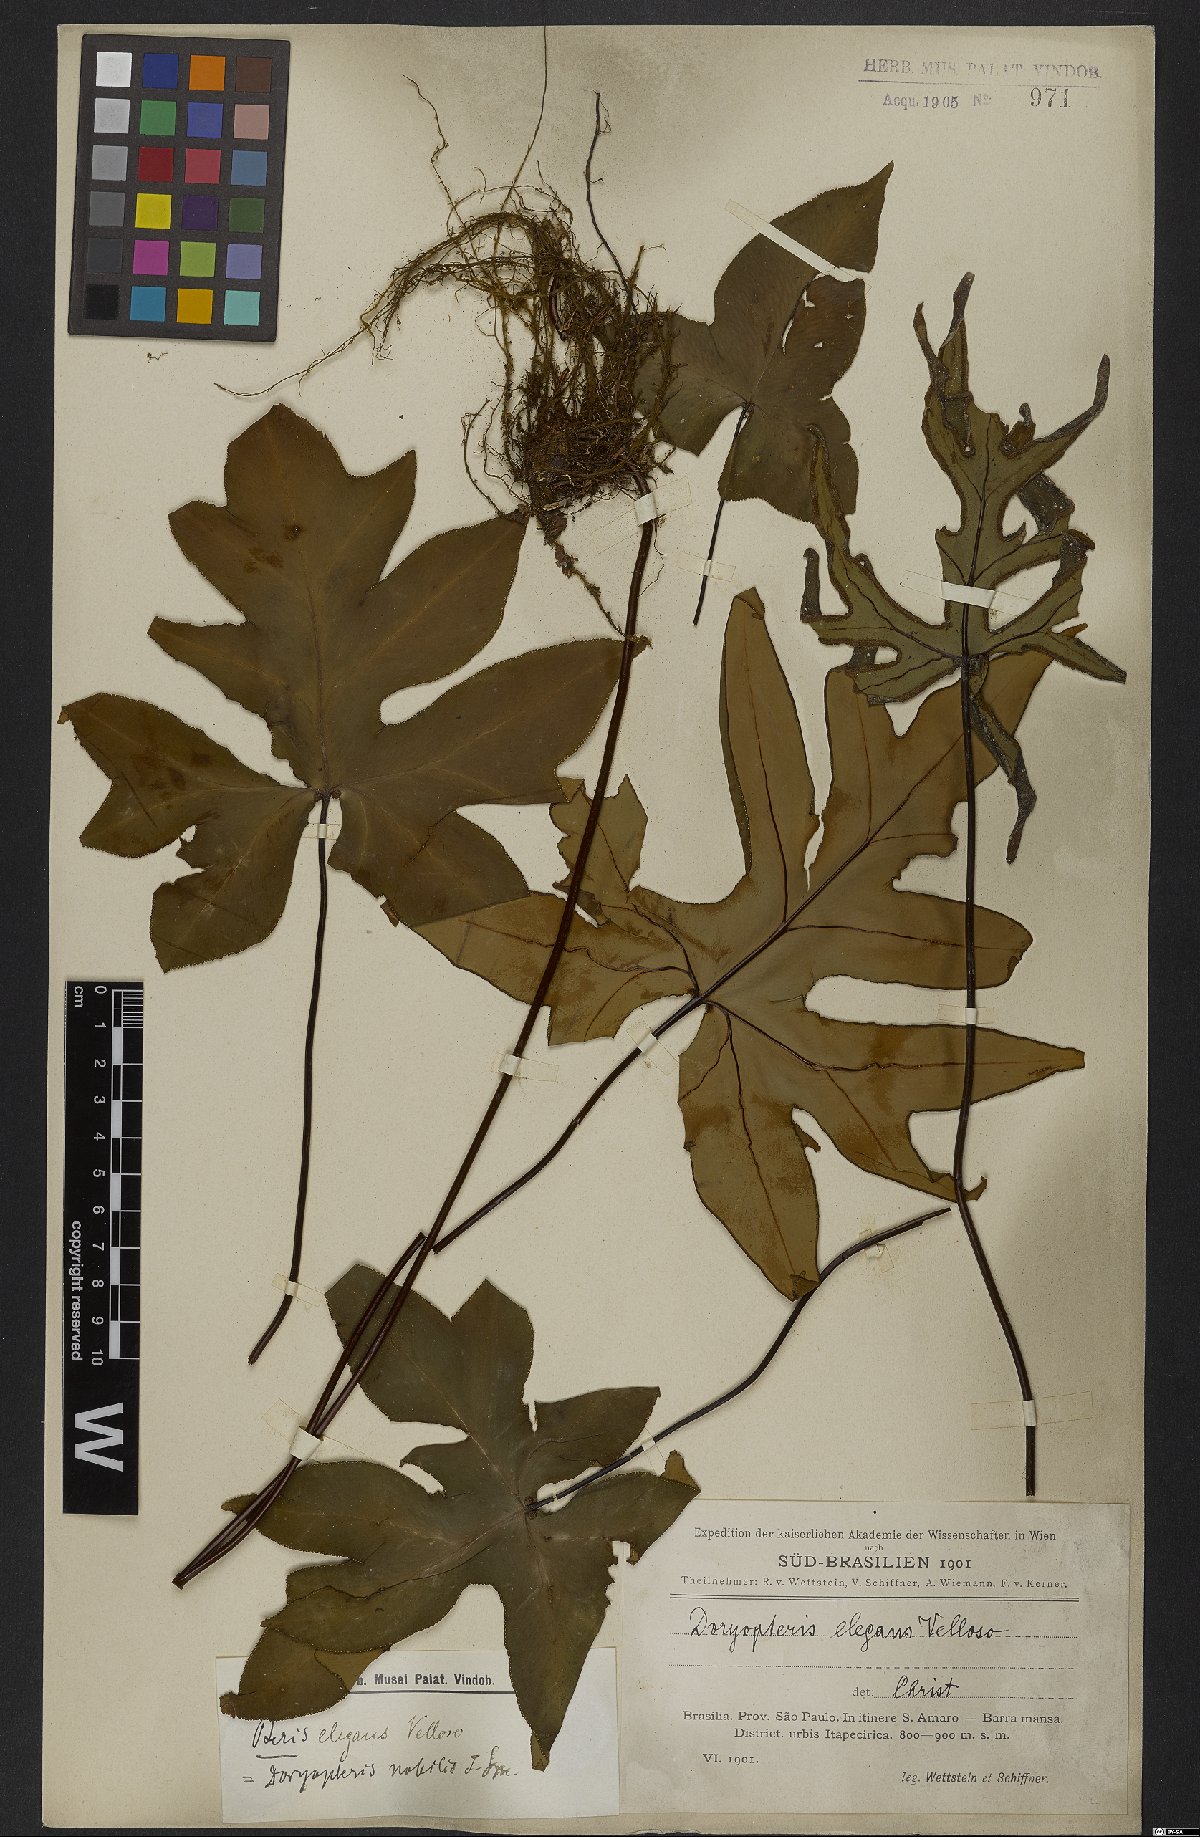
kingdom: Plantae
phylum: Tracheophyta
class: Polypodiopsida
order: Polypodiales
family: Pteridaceae
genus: Doryopteris
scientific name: Doryopteris nobilis
